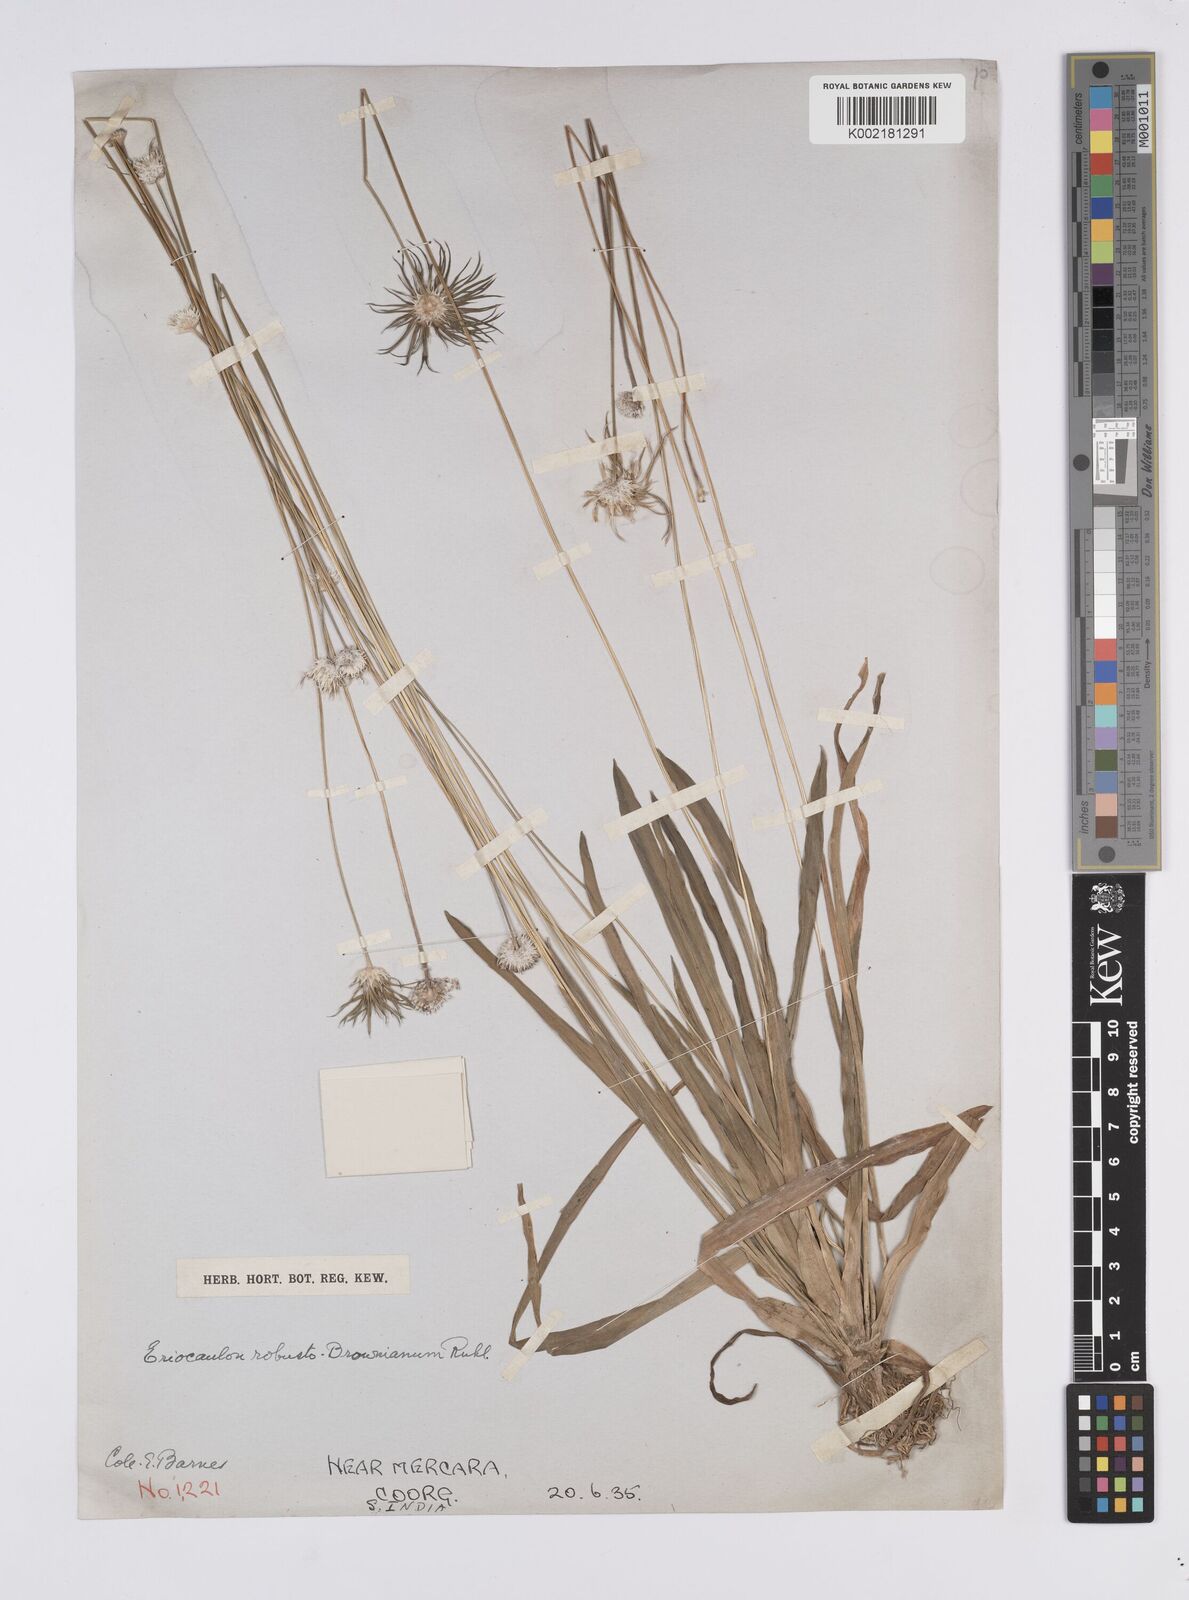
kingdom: Plantae
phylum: Tracheophyta
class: Liliopsida
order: Poales
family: Eriocaulaceae
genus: Eriocaulon
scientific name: Eriocaulon robustobrownianum
